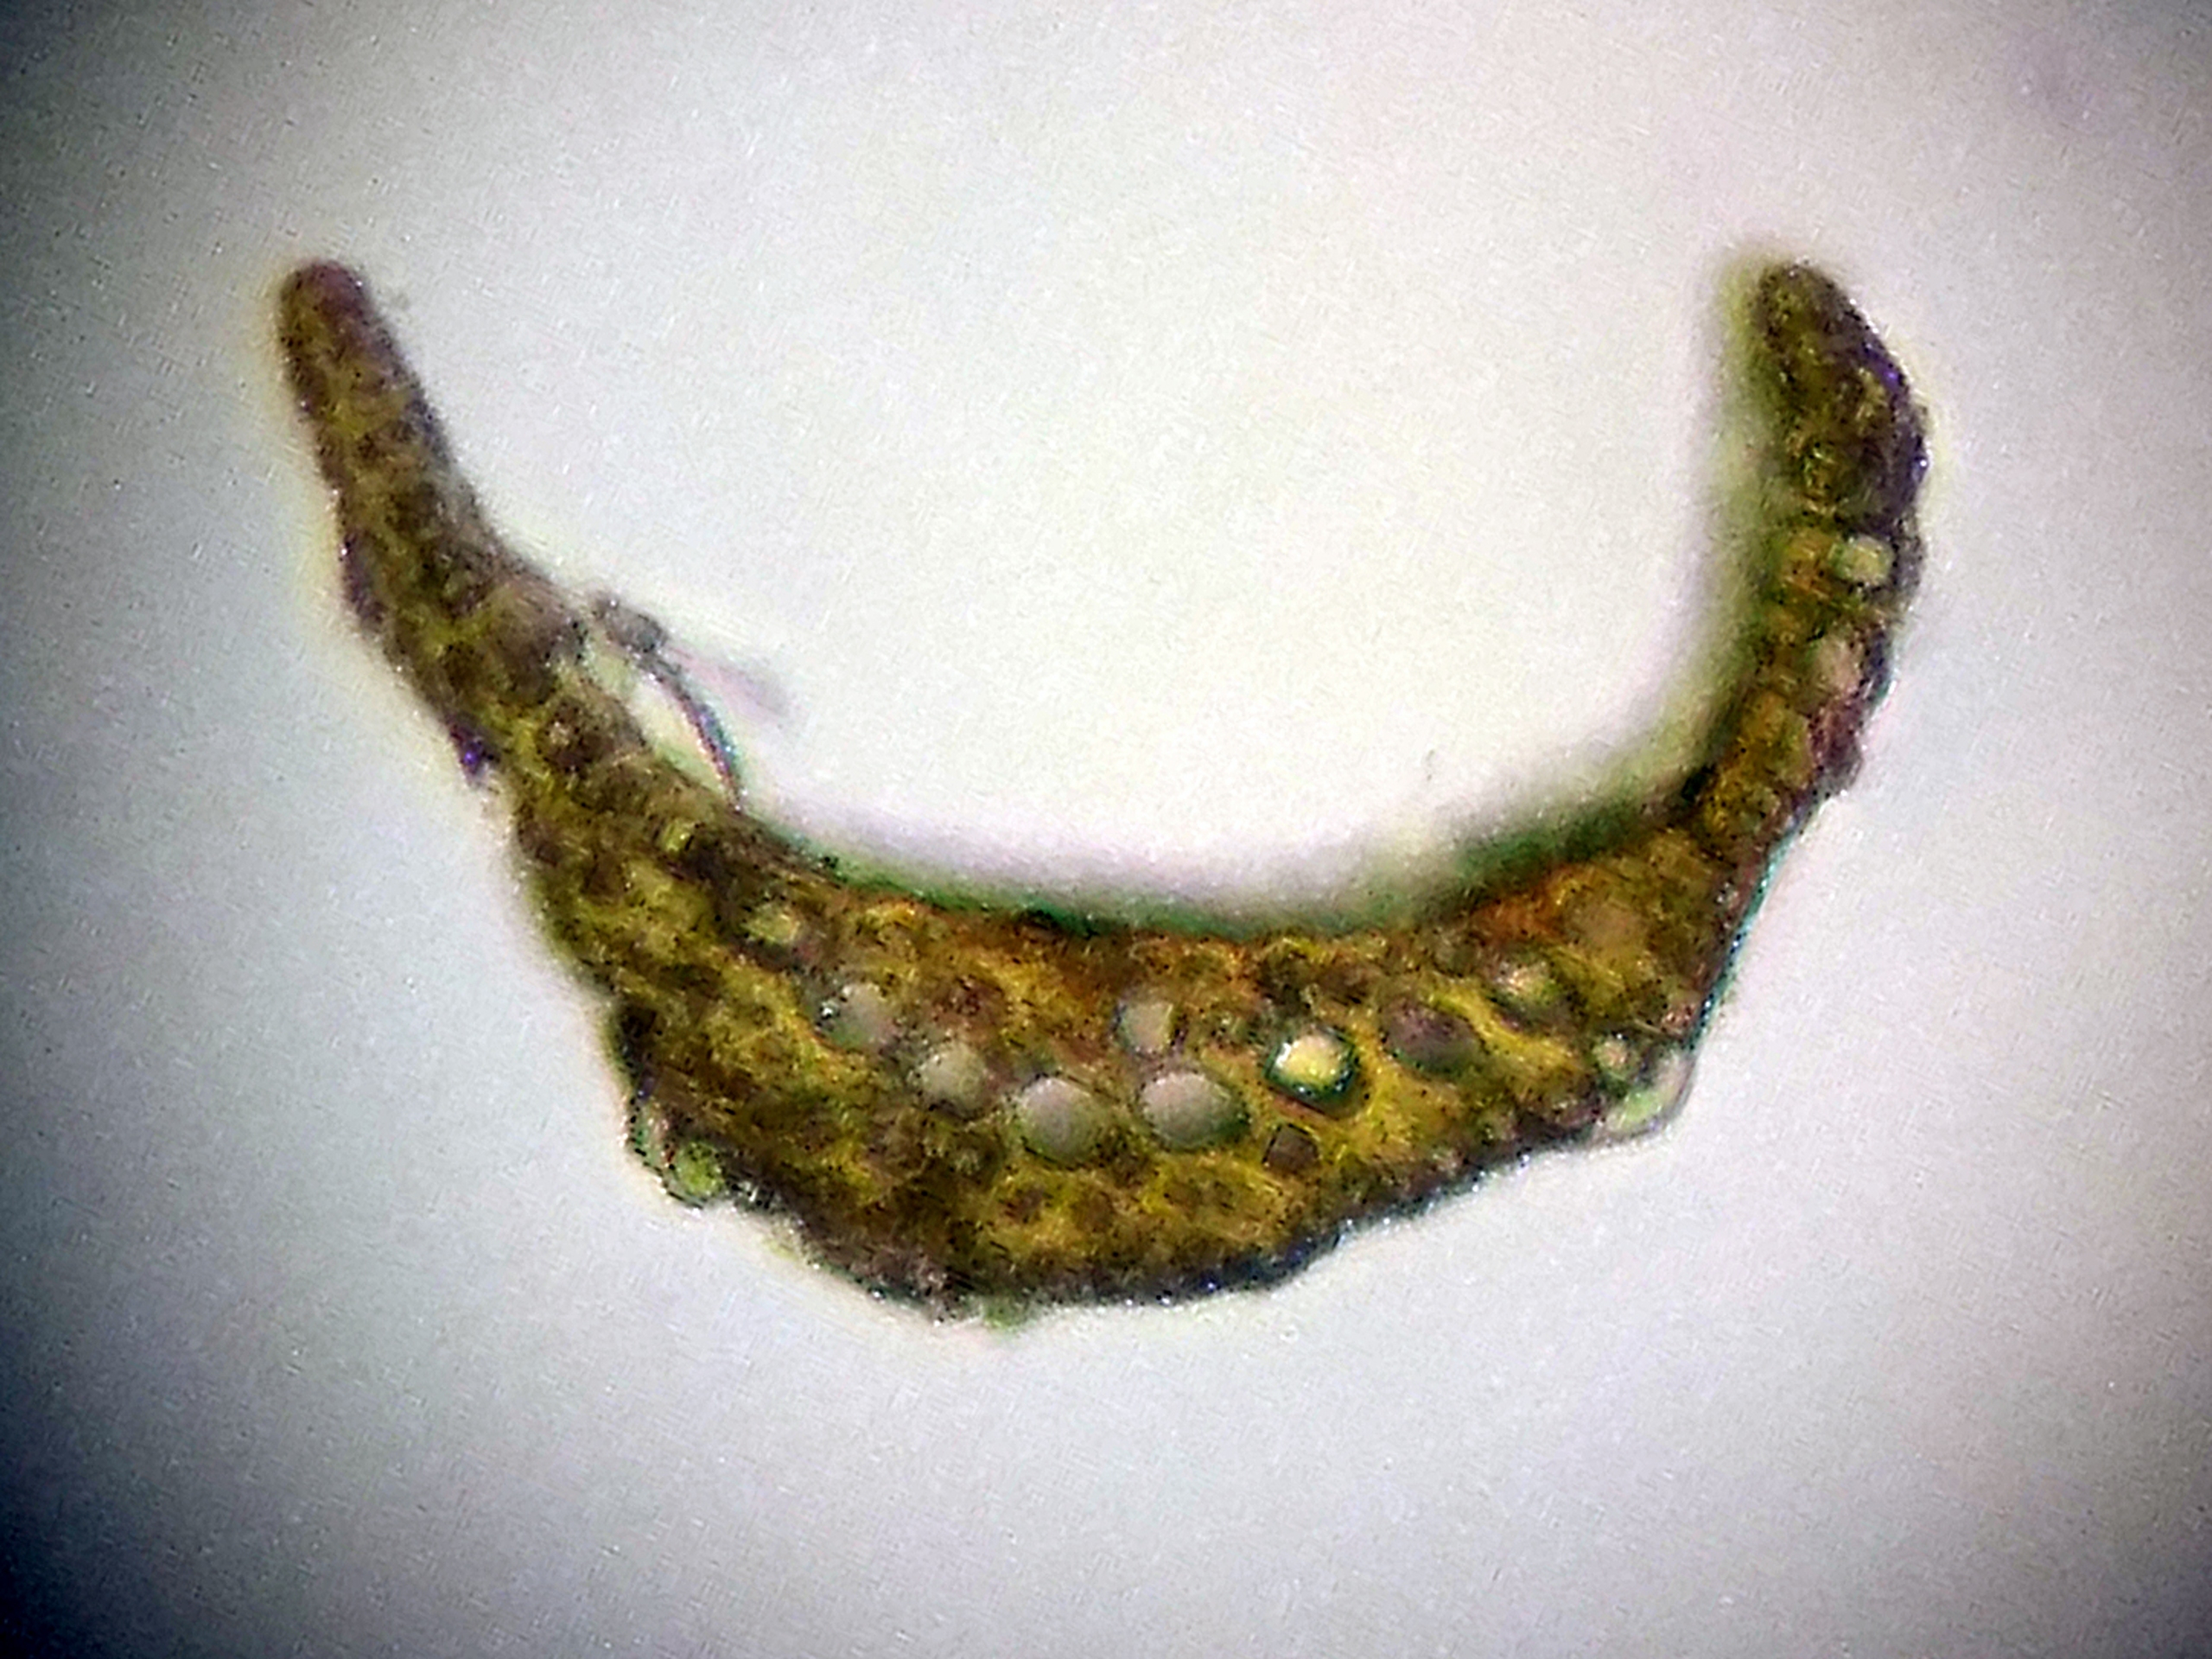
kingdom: Plantae
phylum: Bryophyta
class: Bryopsida
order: Dicranales
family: Ditrichaceae
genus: Pleuridium
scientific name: Pleuridium subulatum
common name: Kortstilket sylbladsmos
